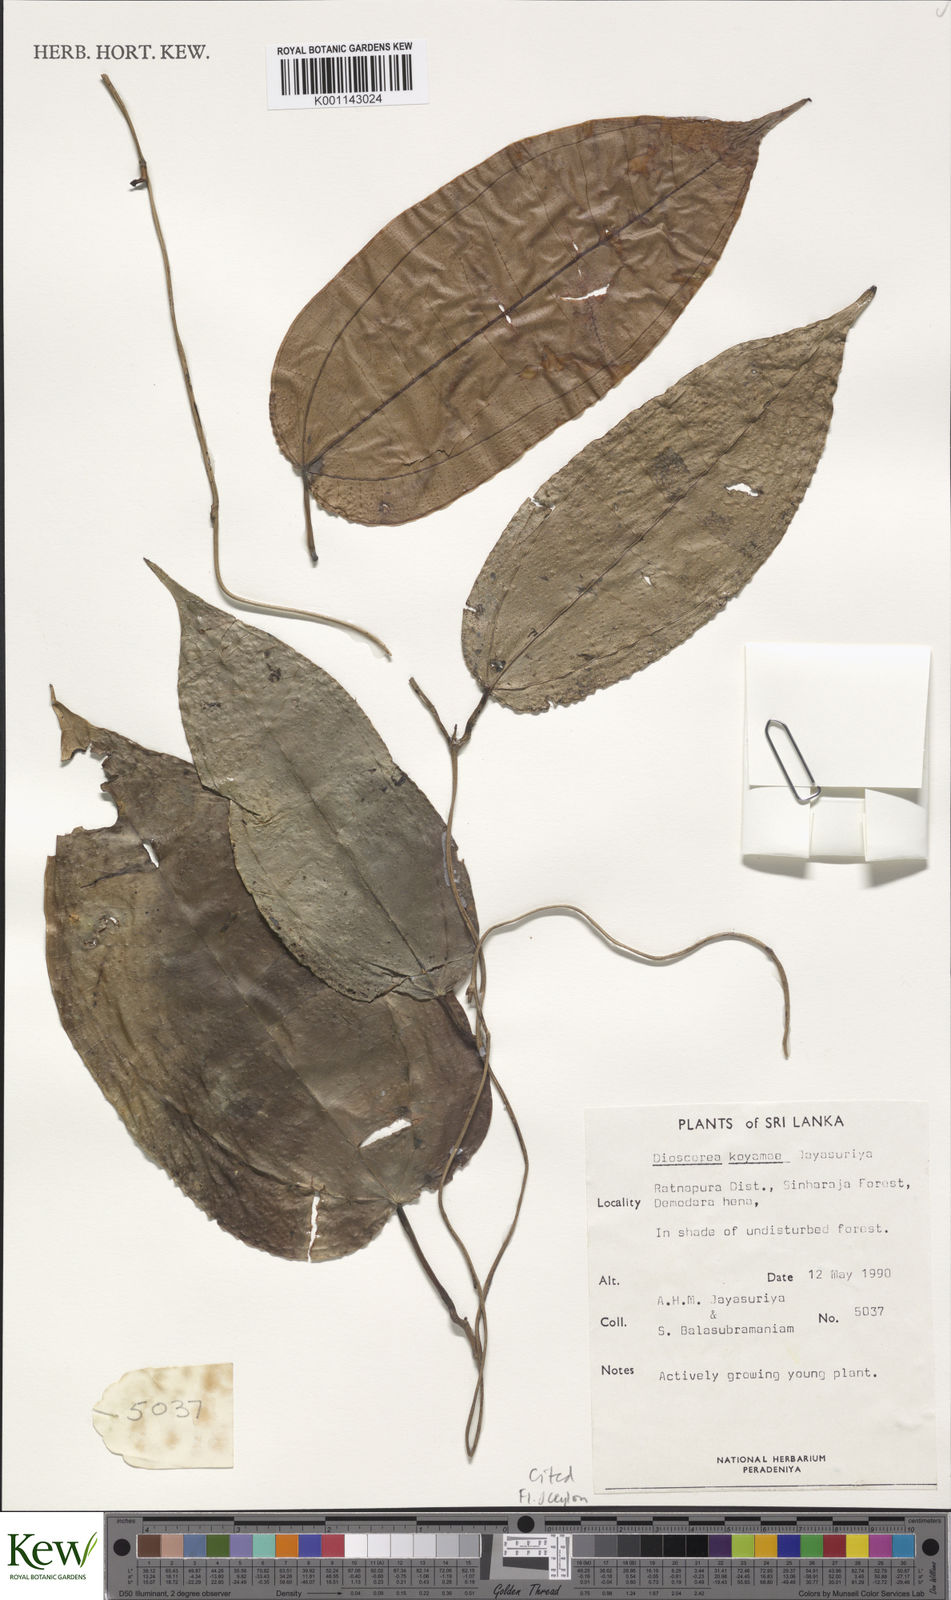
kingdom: Plantae
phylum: Tracheophyta
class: Liliopsida
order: Dioscoreales
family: Dioscoreaceae
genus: Dioscorea
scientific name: Dioscorea koyamae
